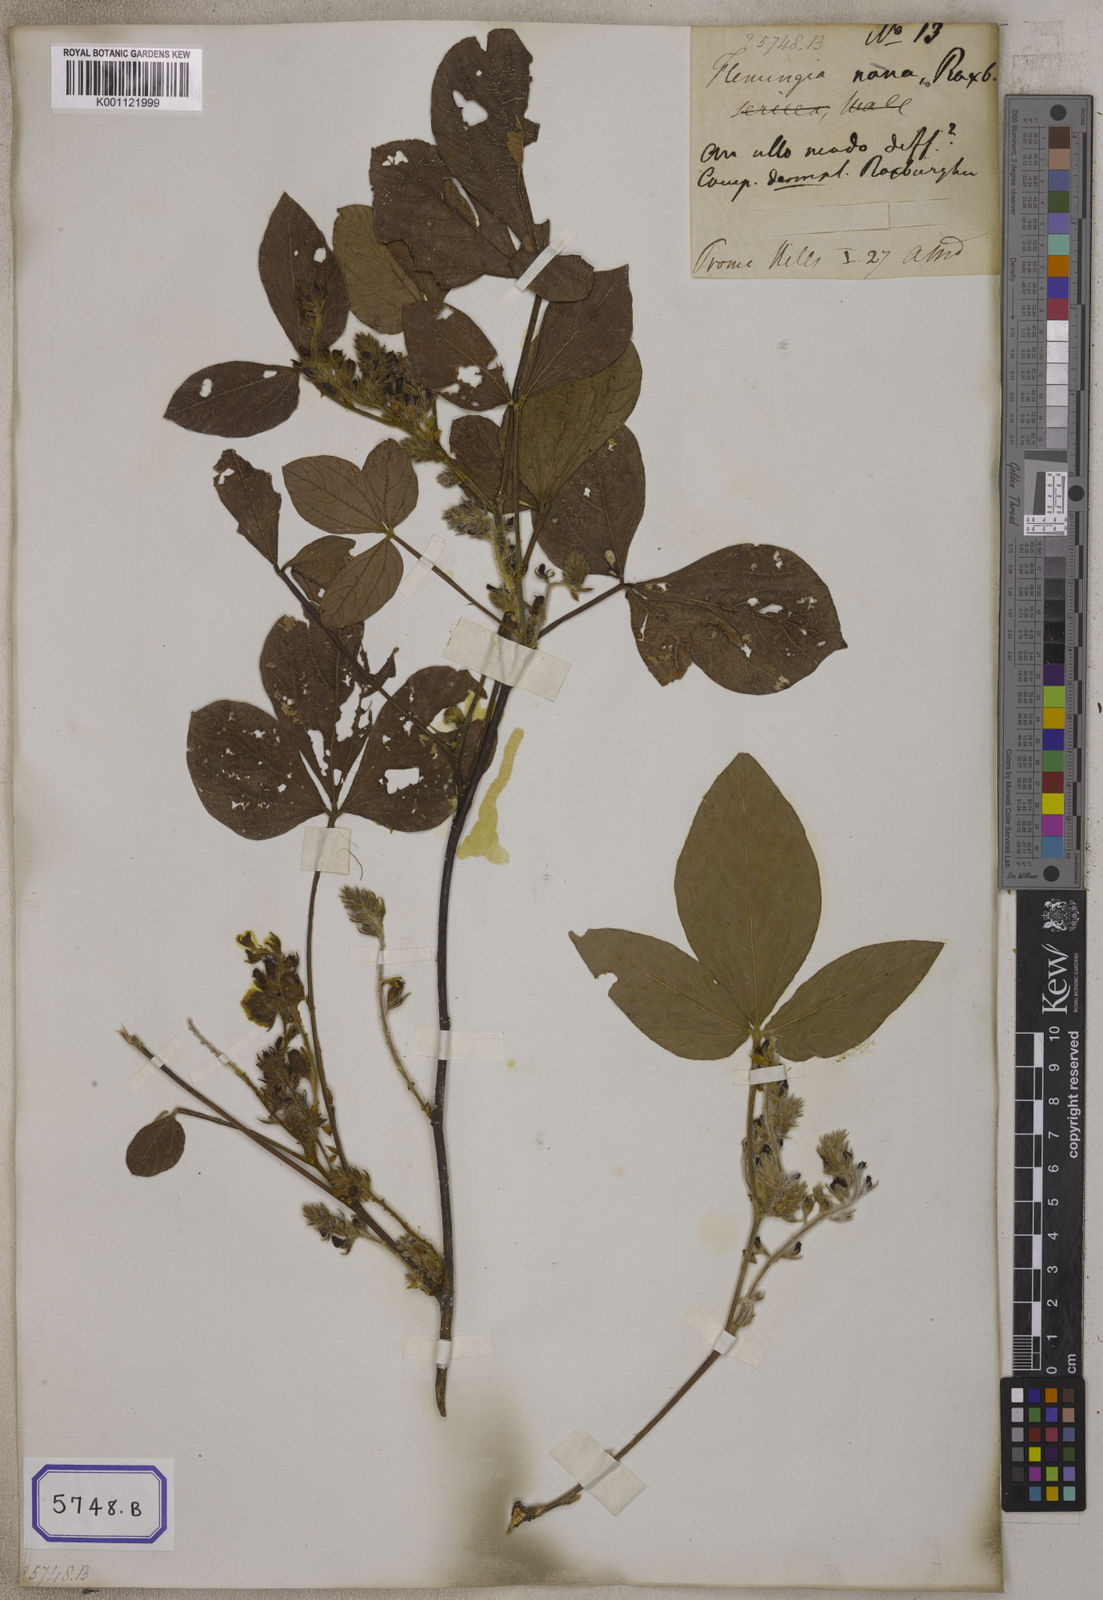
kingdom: Plantae
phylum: Tracheophyta
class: Magnoliopsida
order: Fabales
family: Fabaceae
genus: Flemingia
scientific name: Flemingia
